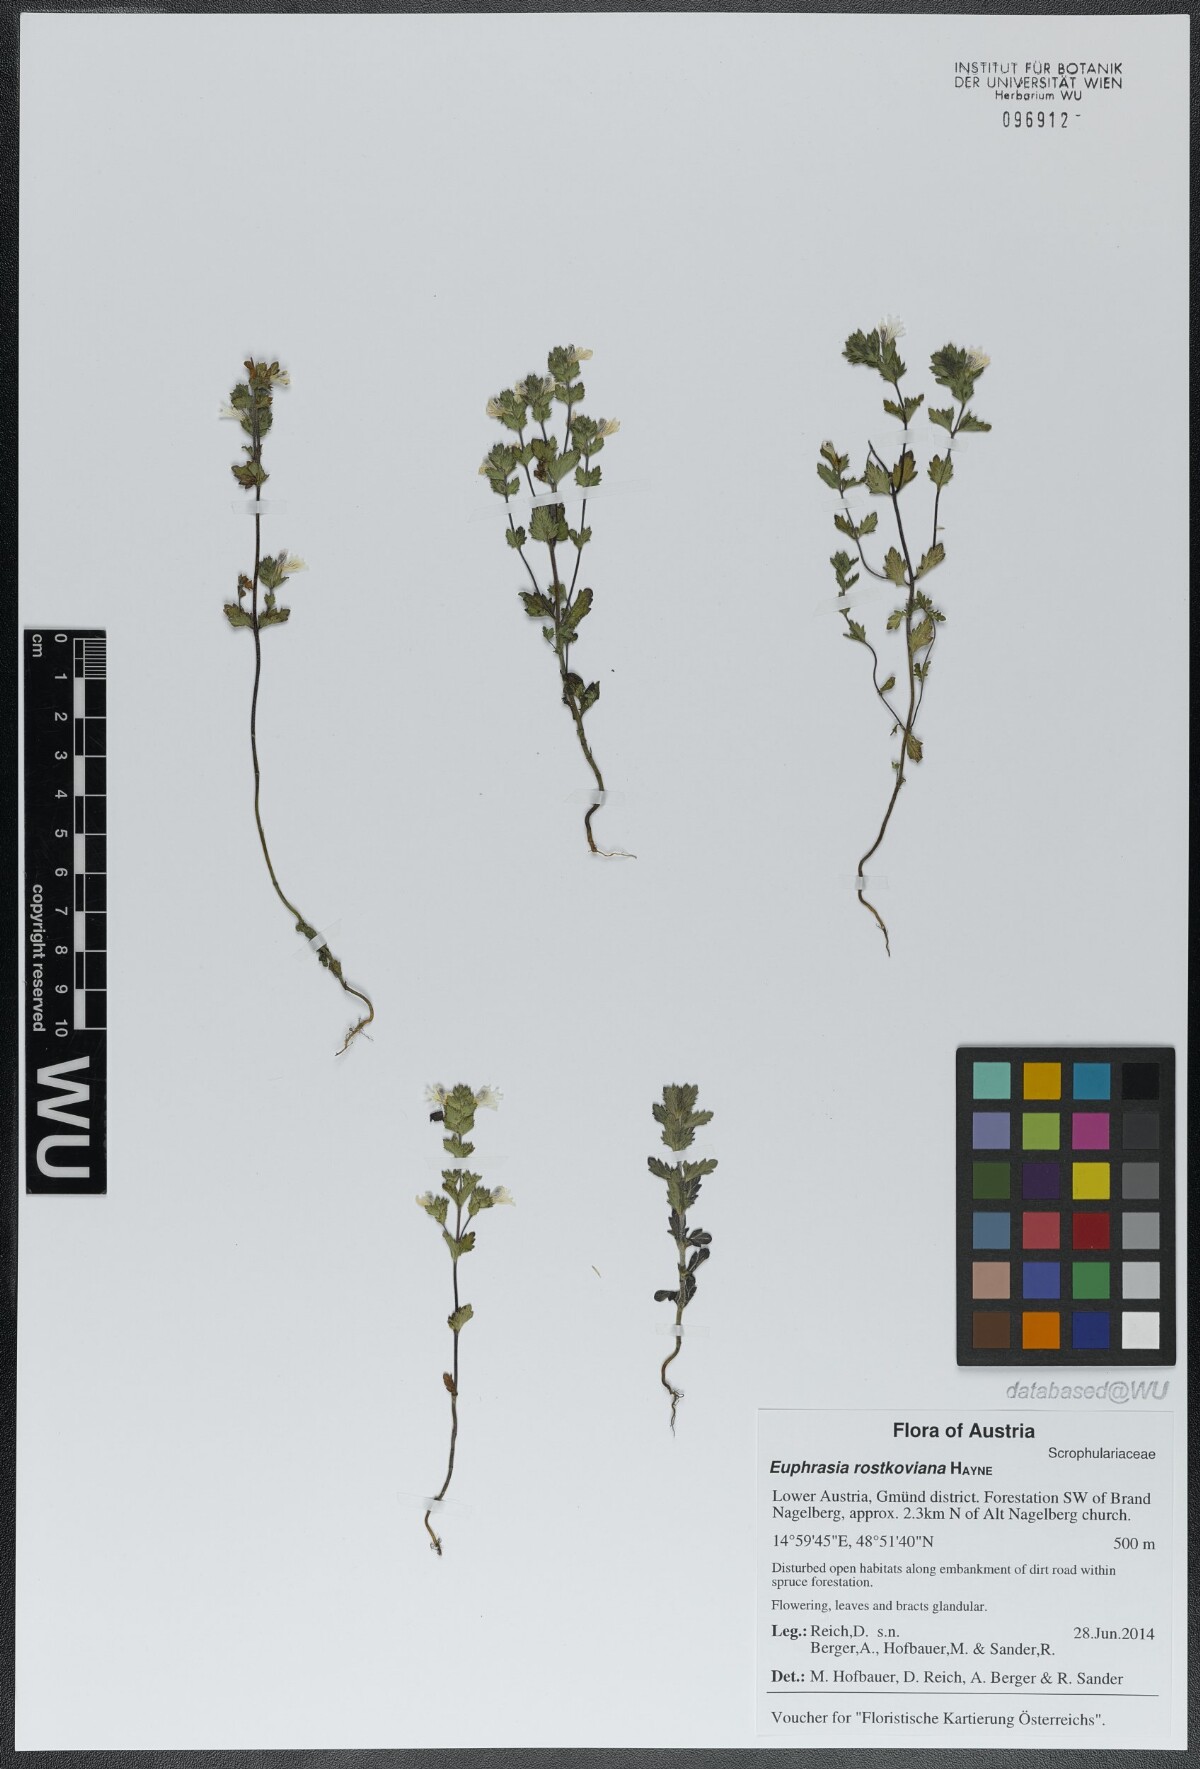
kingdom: Plantae
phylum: Tracheophyta
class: Magnoliopsida
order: Lamiales
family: Orobanchaceae
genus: Euphrasia
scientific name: Euphrasia officinalis
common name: Eyebright
